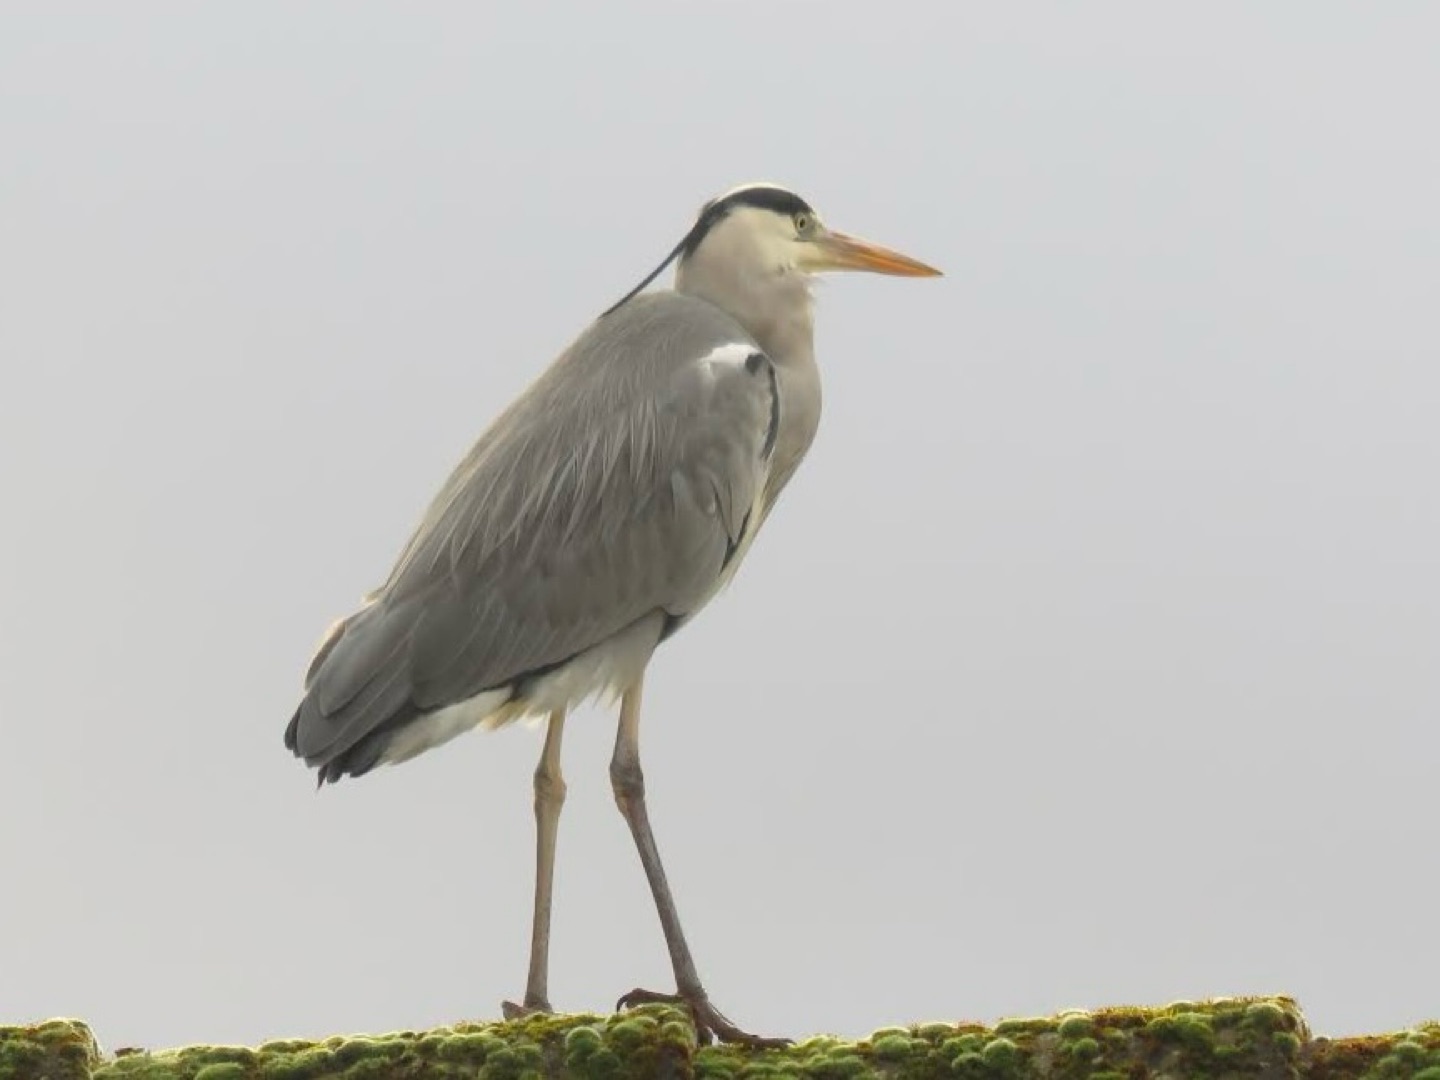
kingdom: Animalia
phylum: Chordata
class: Aves
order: Pelecaniformes
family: Ardeidae
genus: Ardea
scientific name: Ardea cinerea
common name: Fiskehejre
